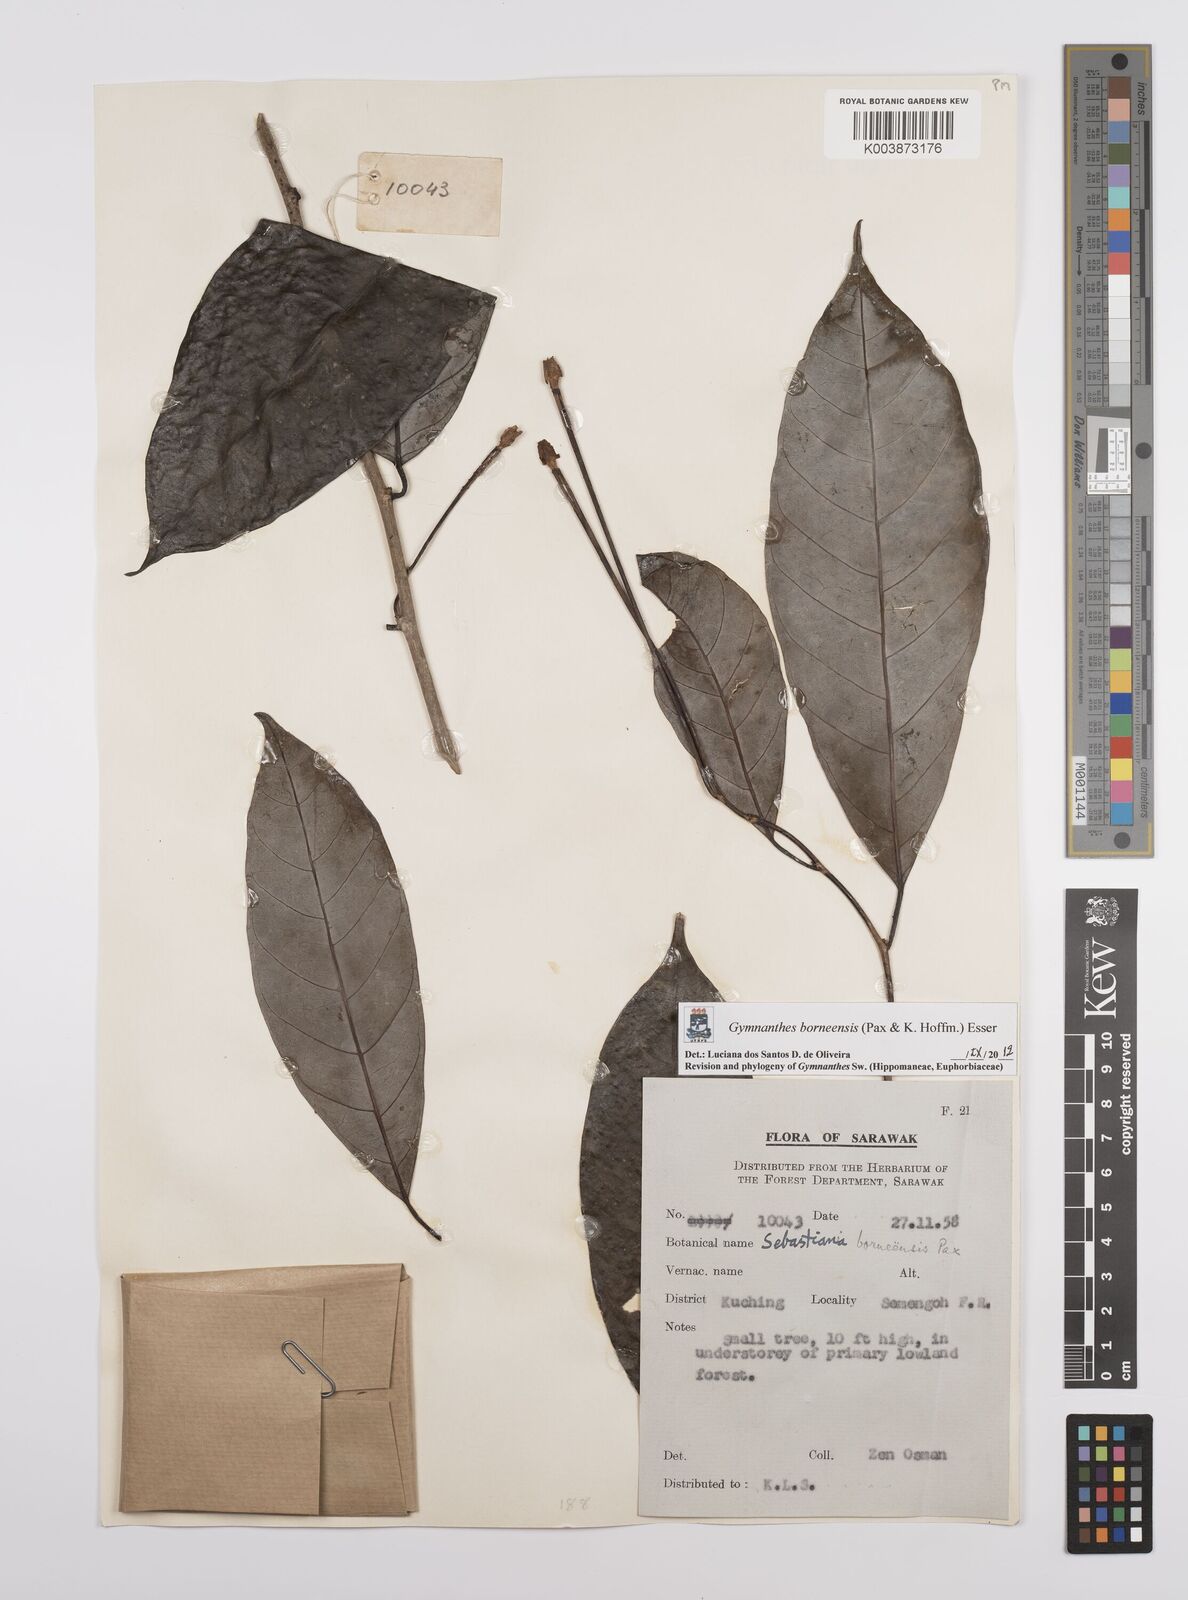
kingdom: Plantae
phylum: Tracheophyta
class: Magnoliopsida
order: Malpighiales
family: Euphorbiaceae
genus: Gymnanthes
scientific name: Gymnanthes borneensis
